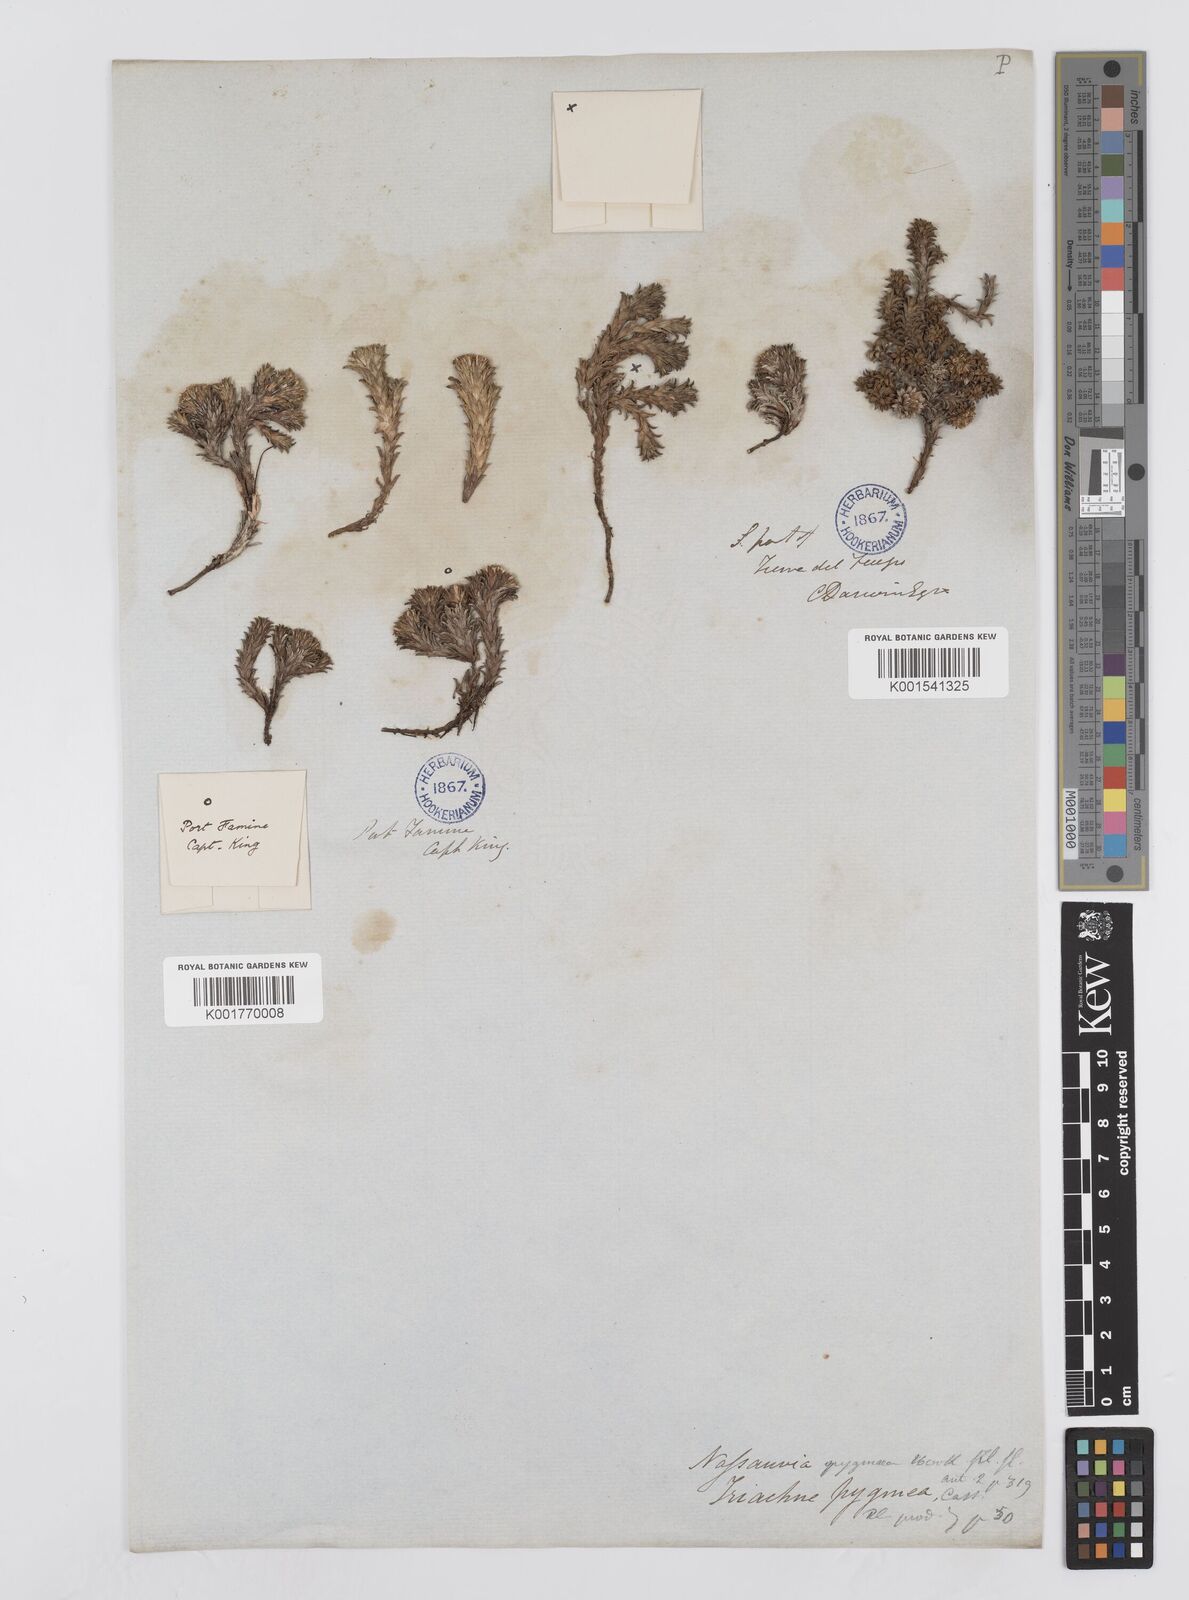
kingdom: Plantae
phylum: Tracheophyta
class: Magnoliopsida
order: Asterales
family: Asteraceae
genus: Nassauvia
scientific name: Nassauvia pygmaea
